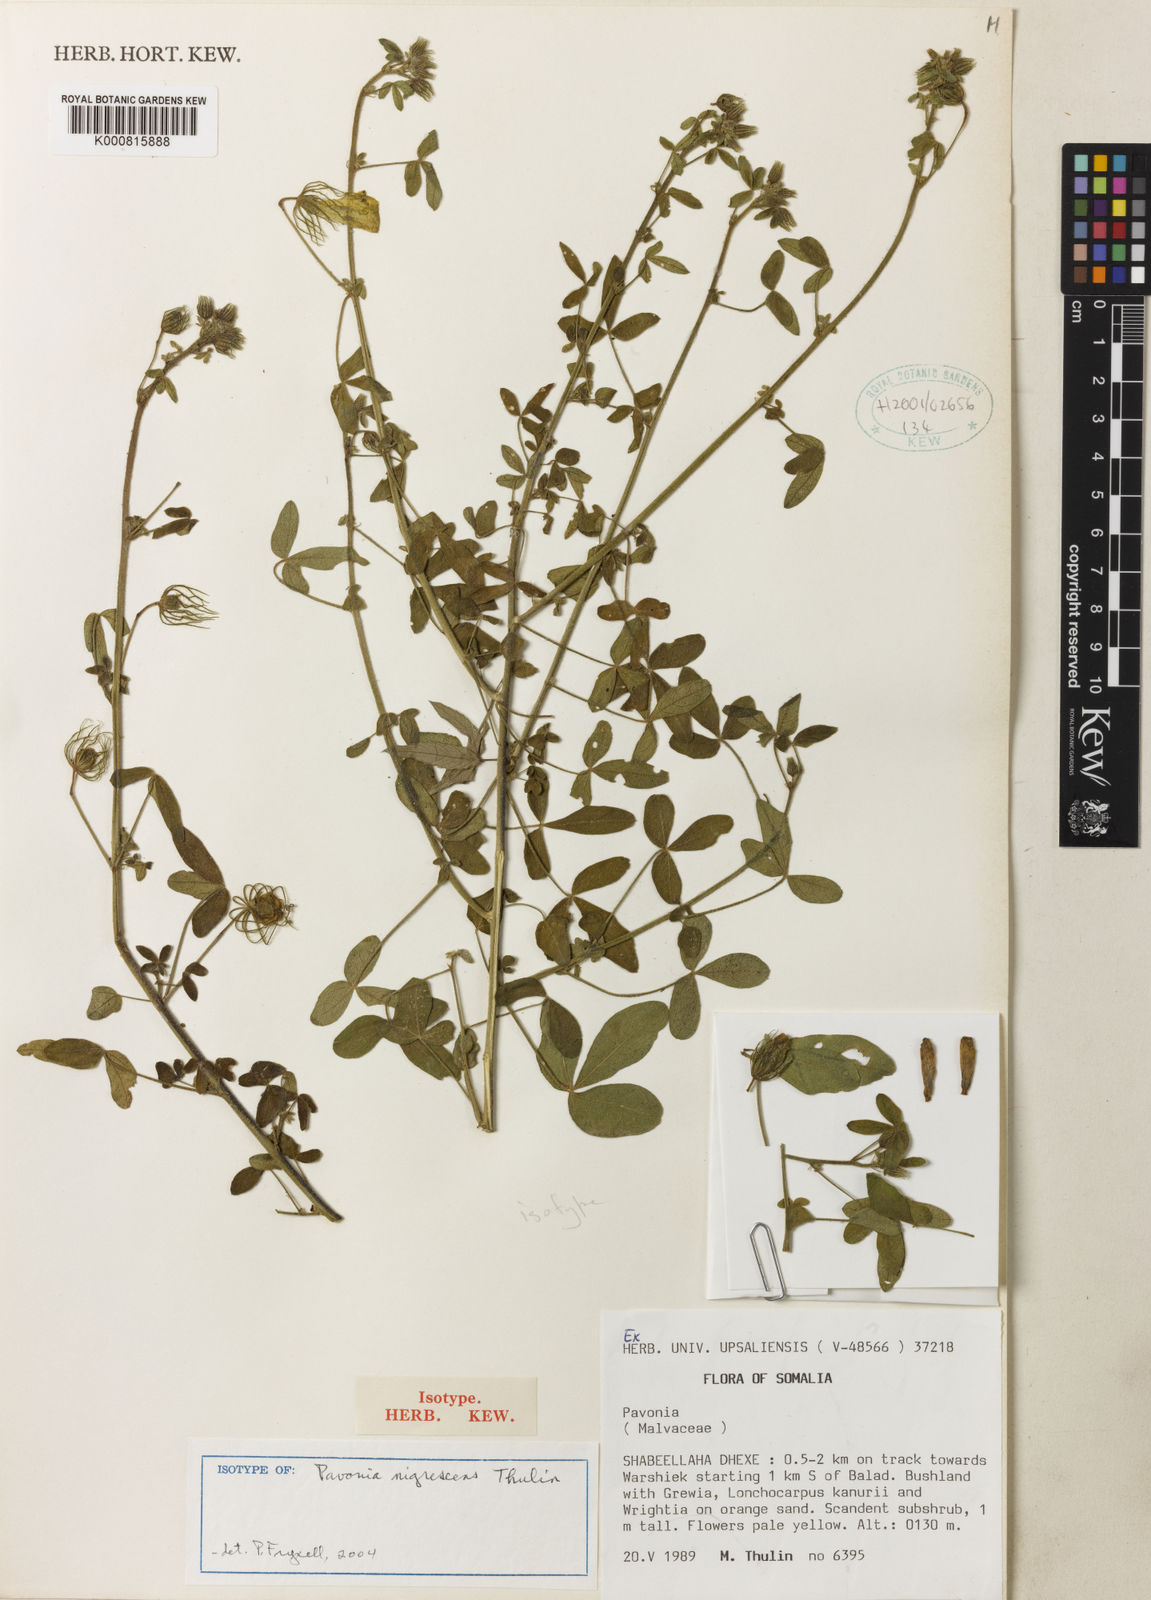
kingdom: Plantae
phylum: Tracheophyta
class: Magnoliopsida
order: Malvales
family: Malvaceae
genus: Pavonia
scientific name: Pavonia nigrescens
